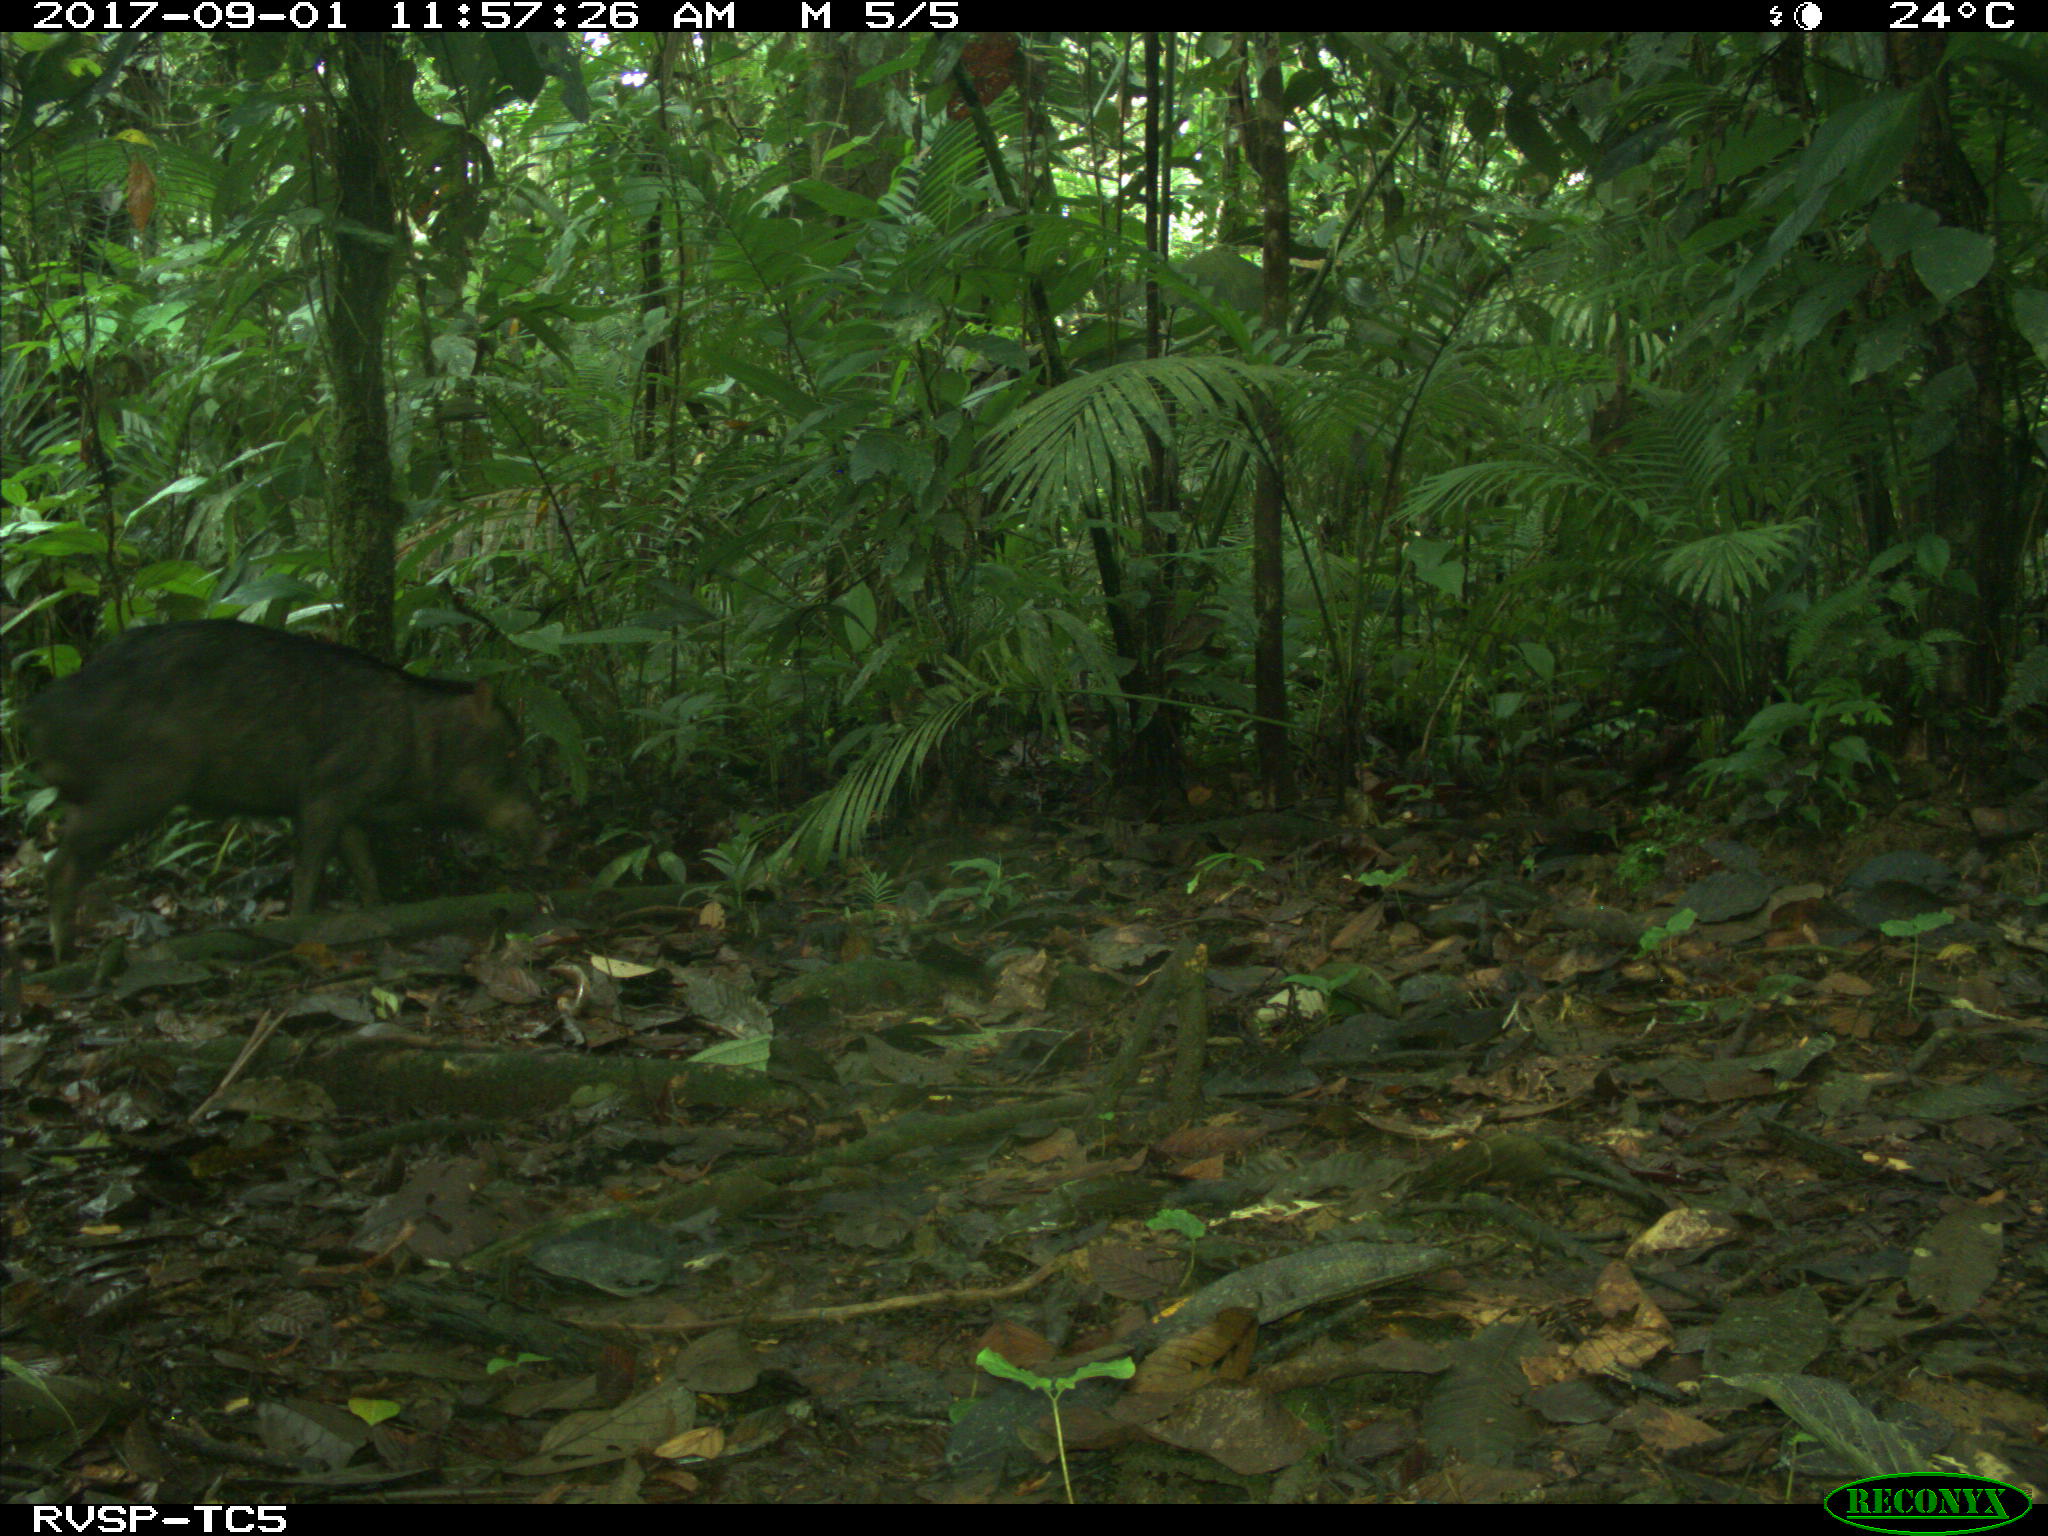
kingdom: Animalia
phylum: Chordata
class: Mammalia
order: Artiodactyla
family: Tayassuidae
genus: Tayassu
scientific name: Tayassu pecari
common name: White-lipped peccary
